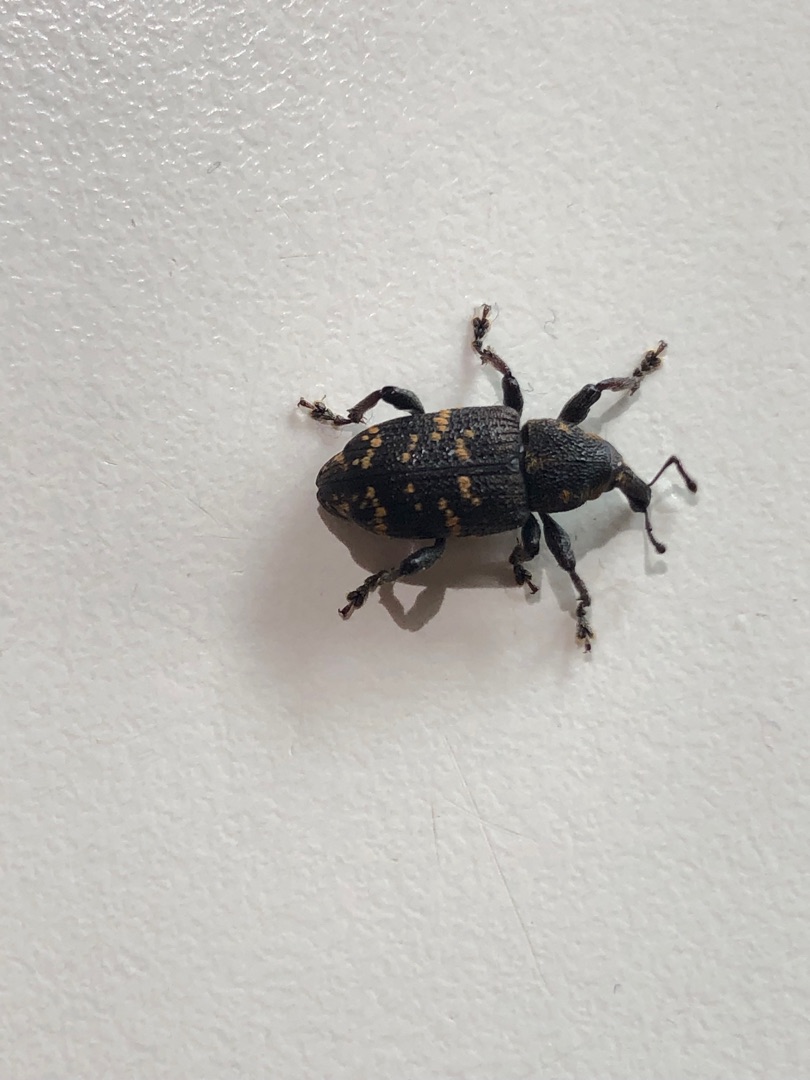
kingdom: Animalia
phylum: Arthropoda
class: Insecta
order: Coleoptera
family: Curculionidae
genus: Hylobius
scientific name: Hylobius abietis
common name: Stor nåletræsnudebille
